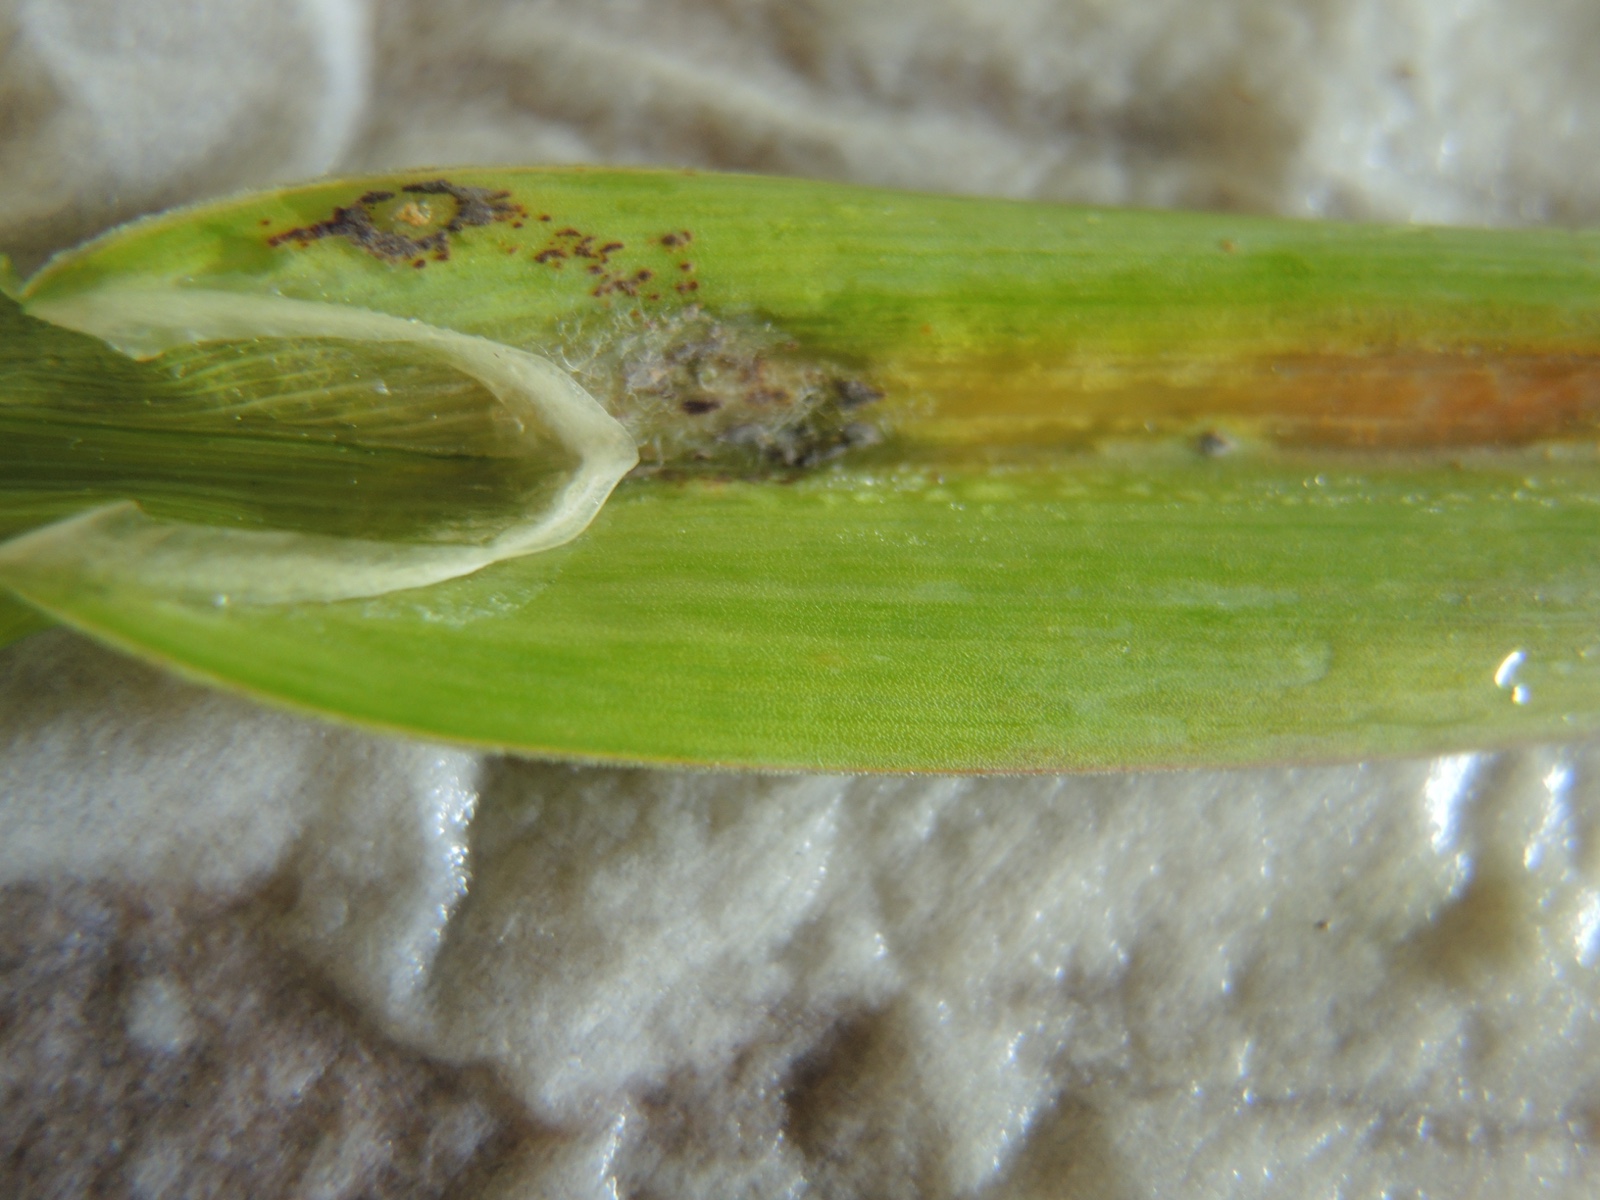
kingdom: Fungi
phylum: Basidiomycota
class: Pucciniomycetes
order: Pucciniales
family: Pucciniaceae
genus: Puccinia
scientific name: Puccinia
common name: tvecellerust
